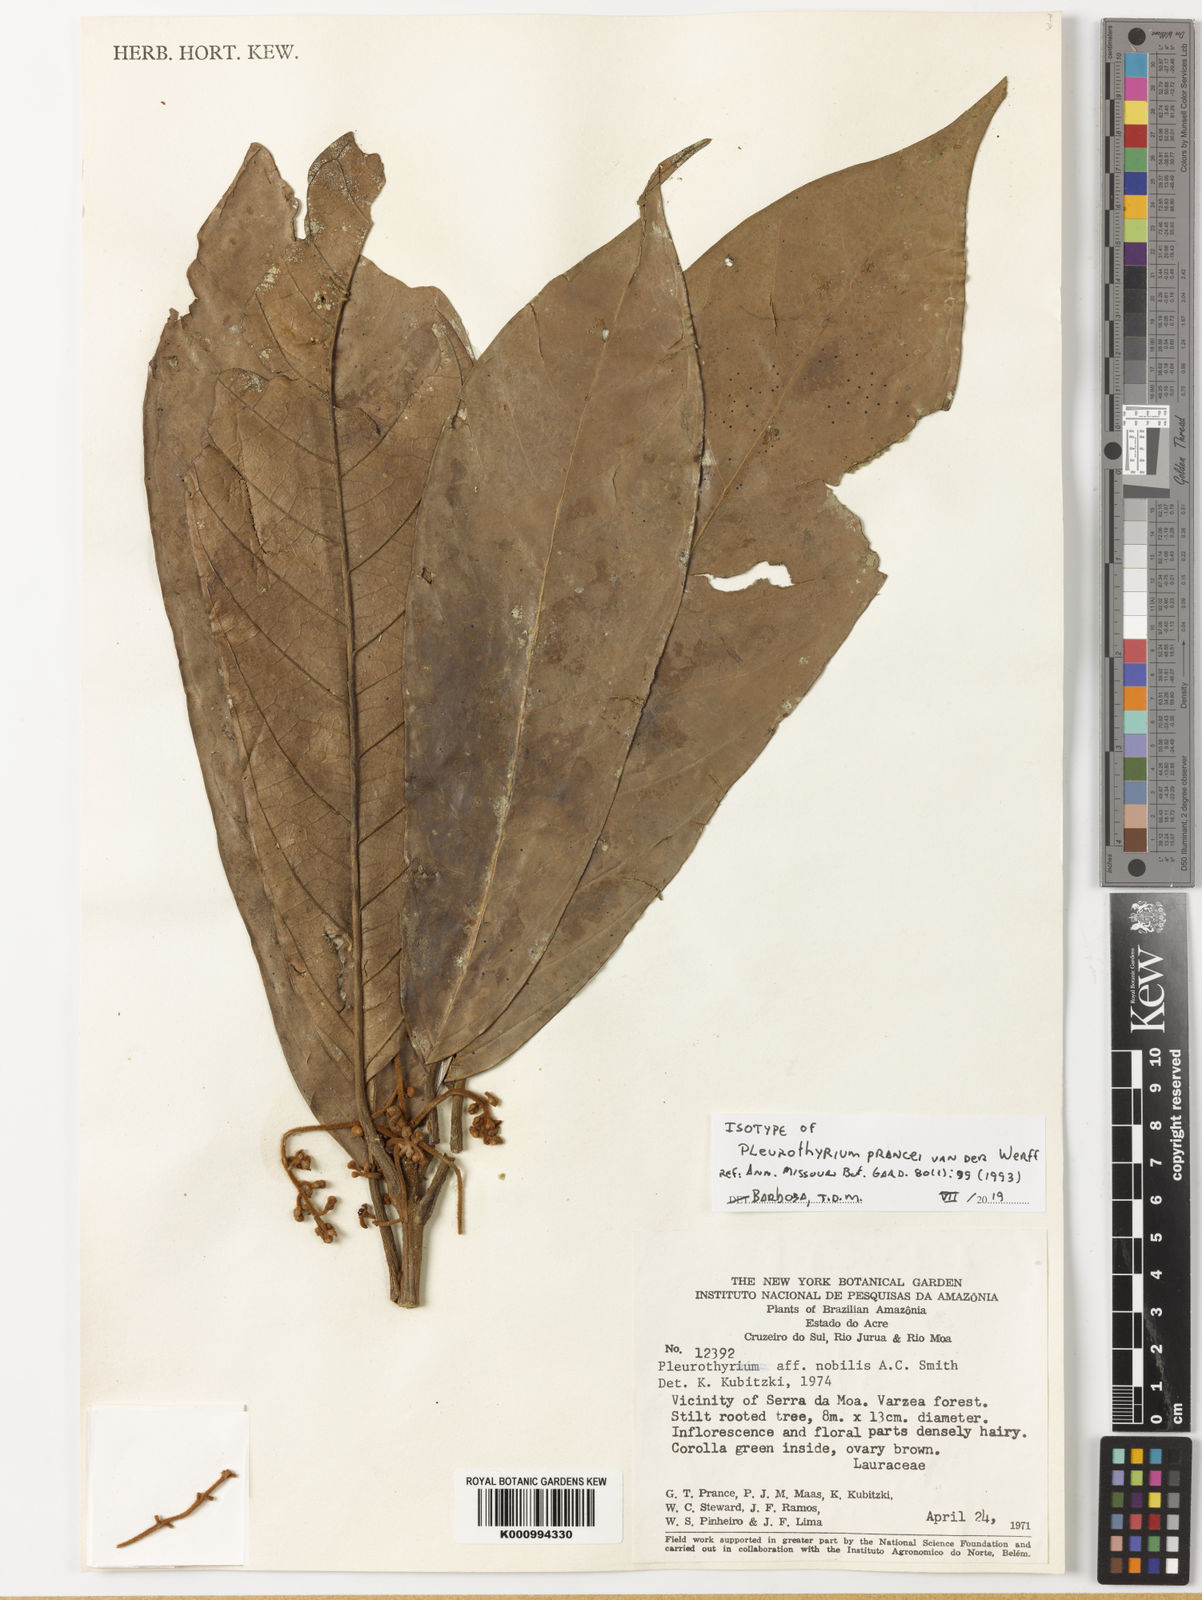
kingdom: Plantae
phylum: Tracheophyta
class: Magnoliopsida
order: Laurales
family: Lauraceae
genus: Pleurothyrium
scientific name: Pleurothyrium prancei
